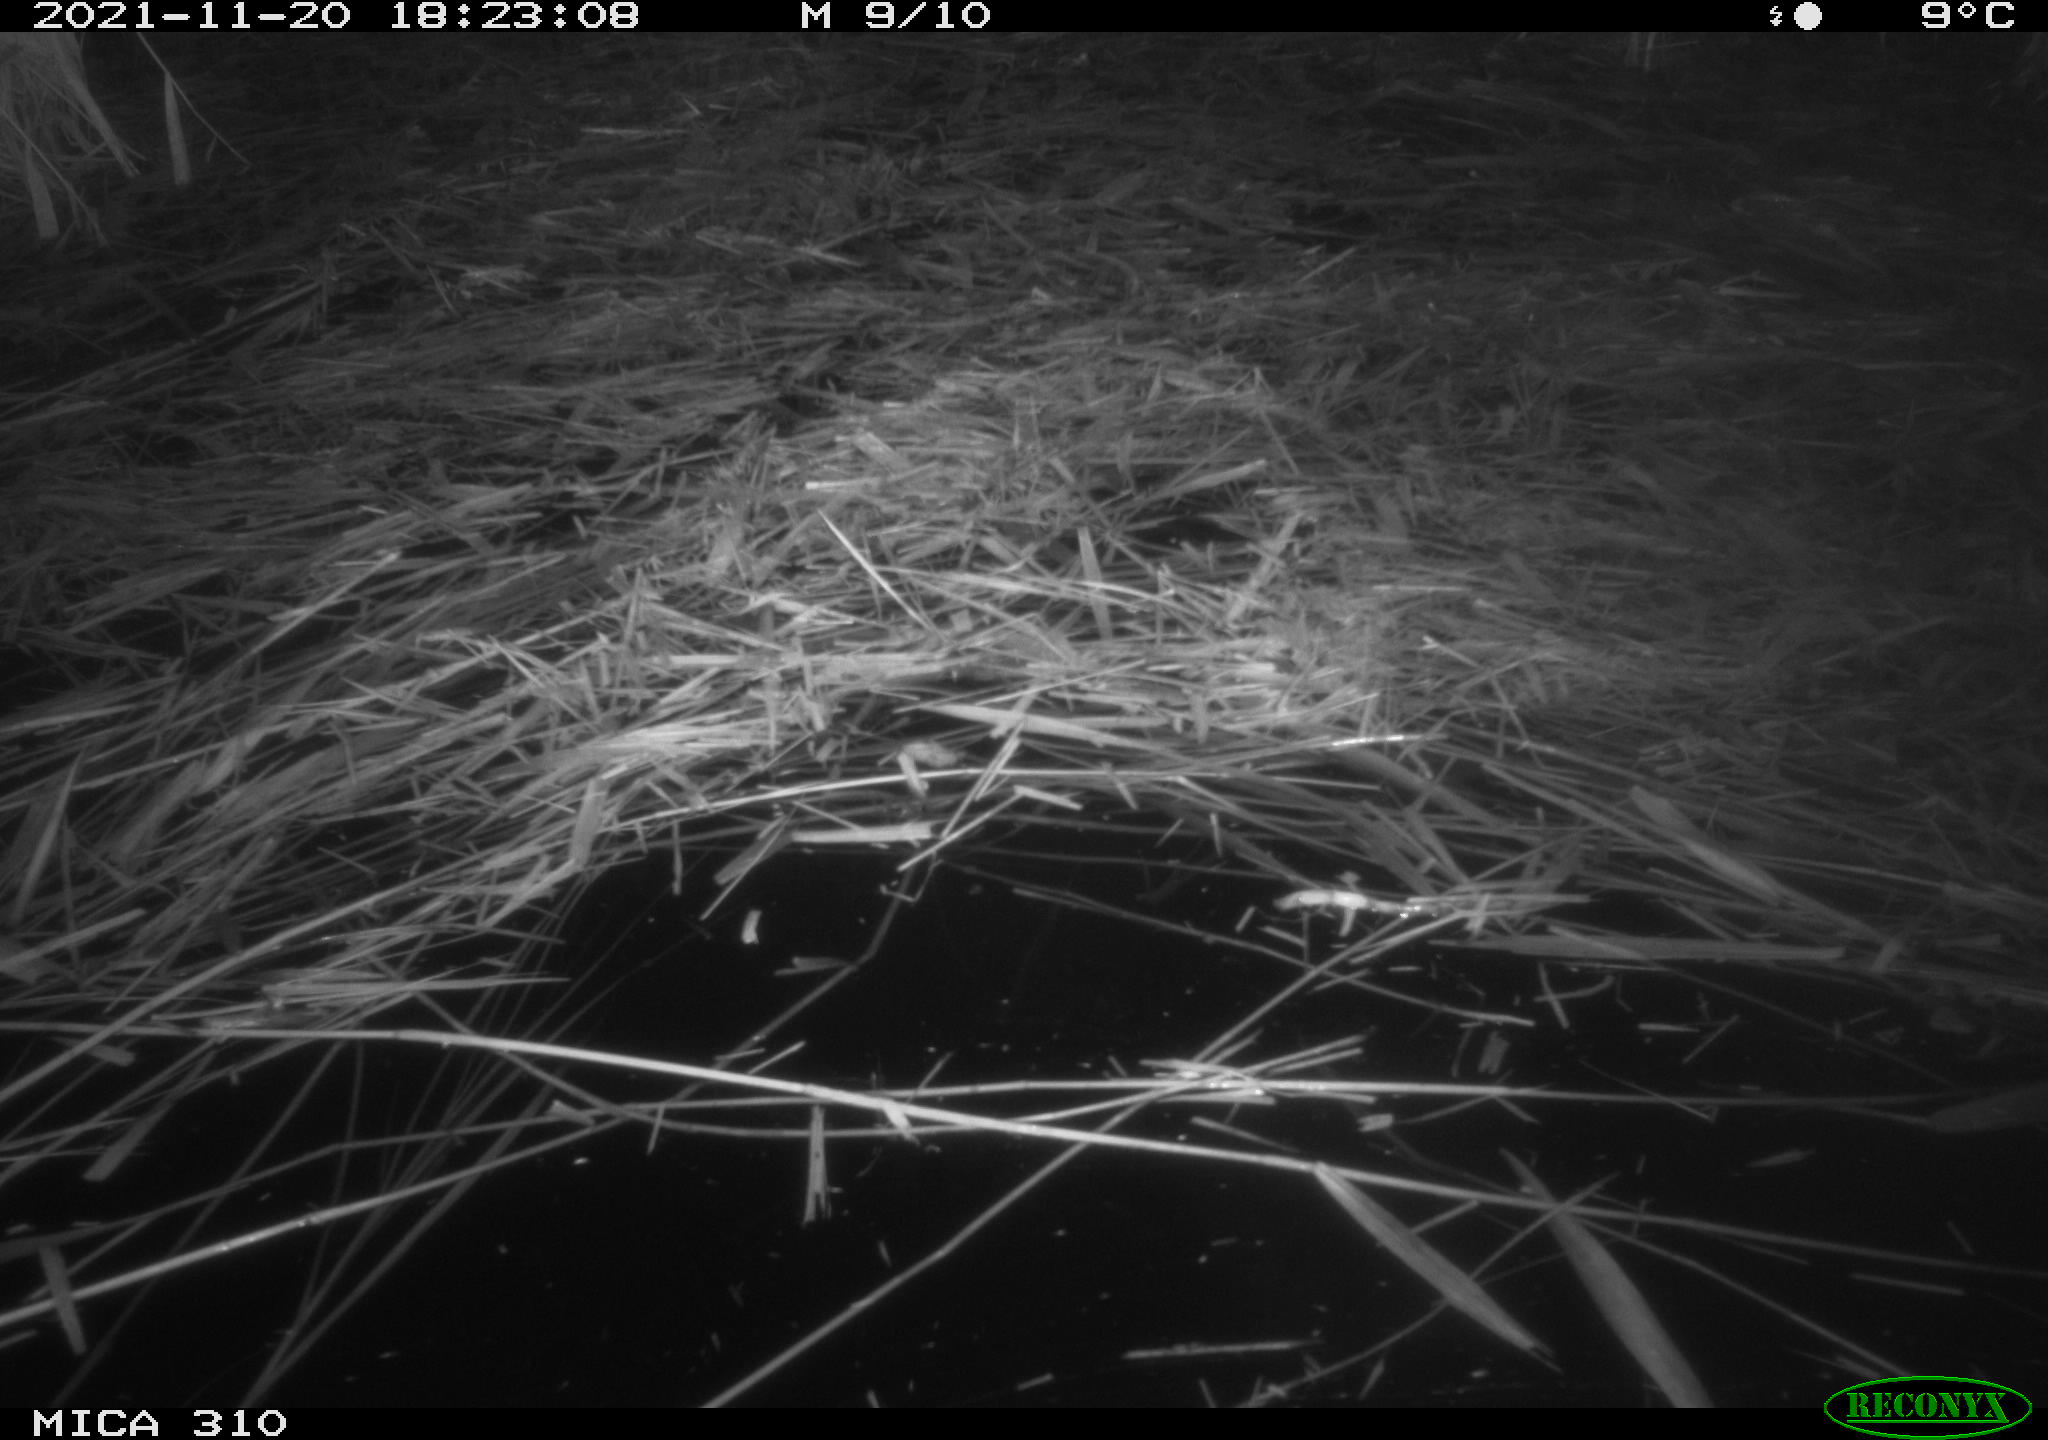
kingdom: Animalia
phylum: Chordata
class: Mammalia
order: Rodentia
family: Muridae
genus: Rattus
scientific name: Rattus norvegicus
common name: Brown rat
